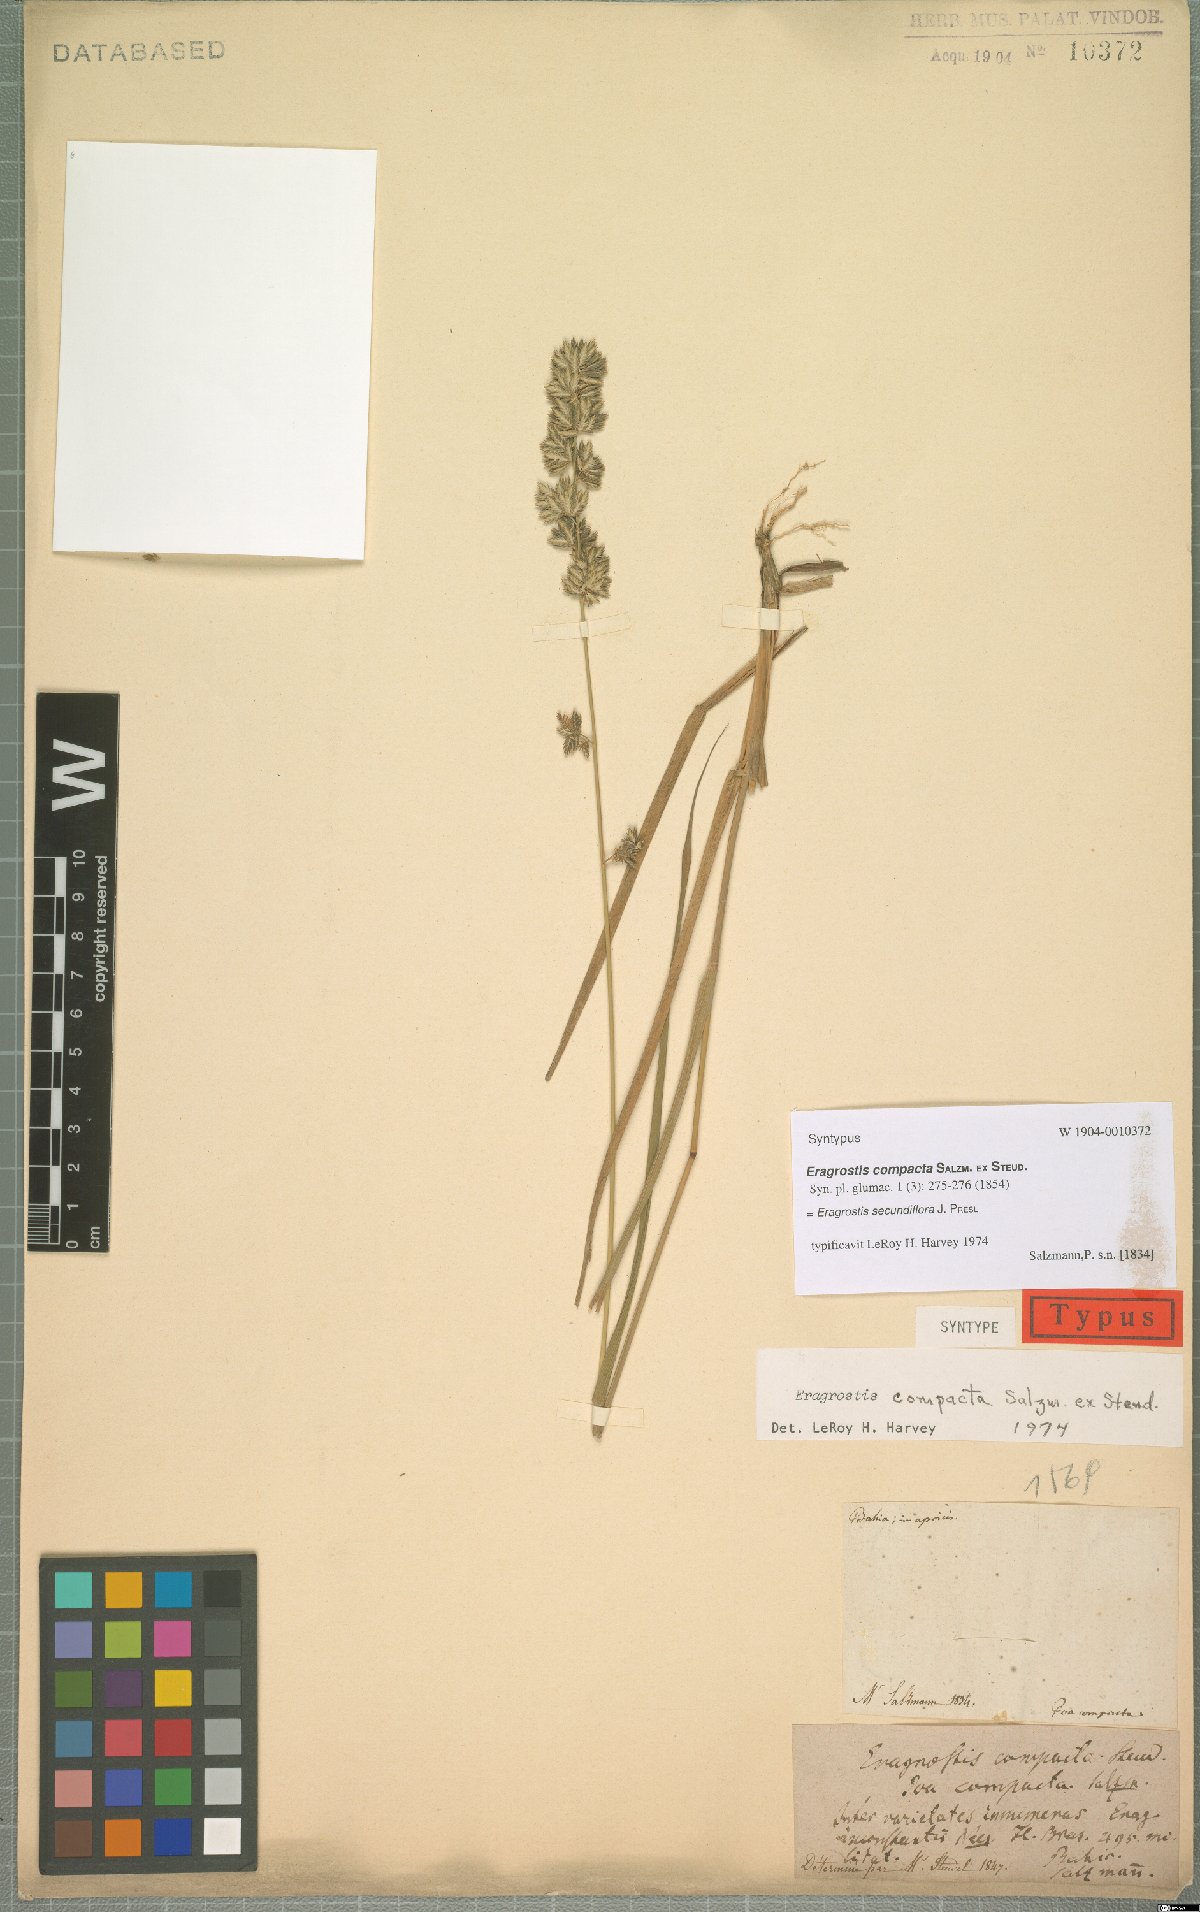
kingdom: Plantae
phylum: Tracheophyta
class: Liliopsida
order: Poales
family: Poaceae
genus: Eragrostis
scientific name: Eragrostis secundiflora
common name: Red love grass
